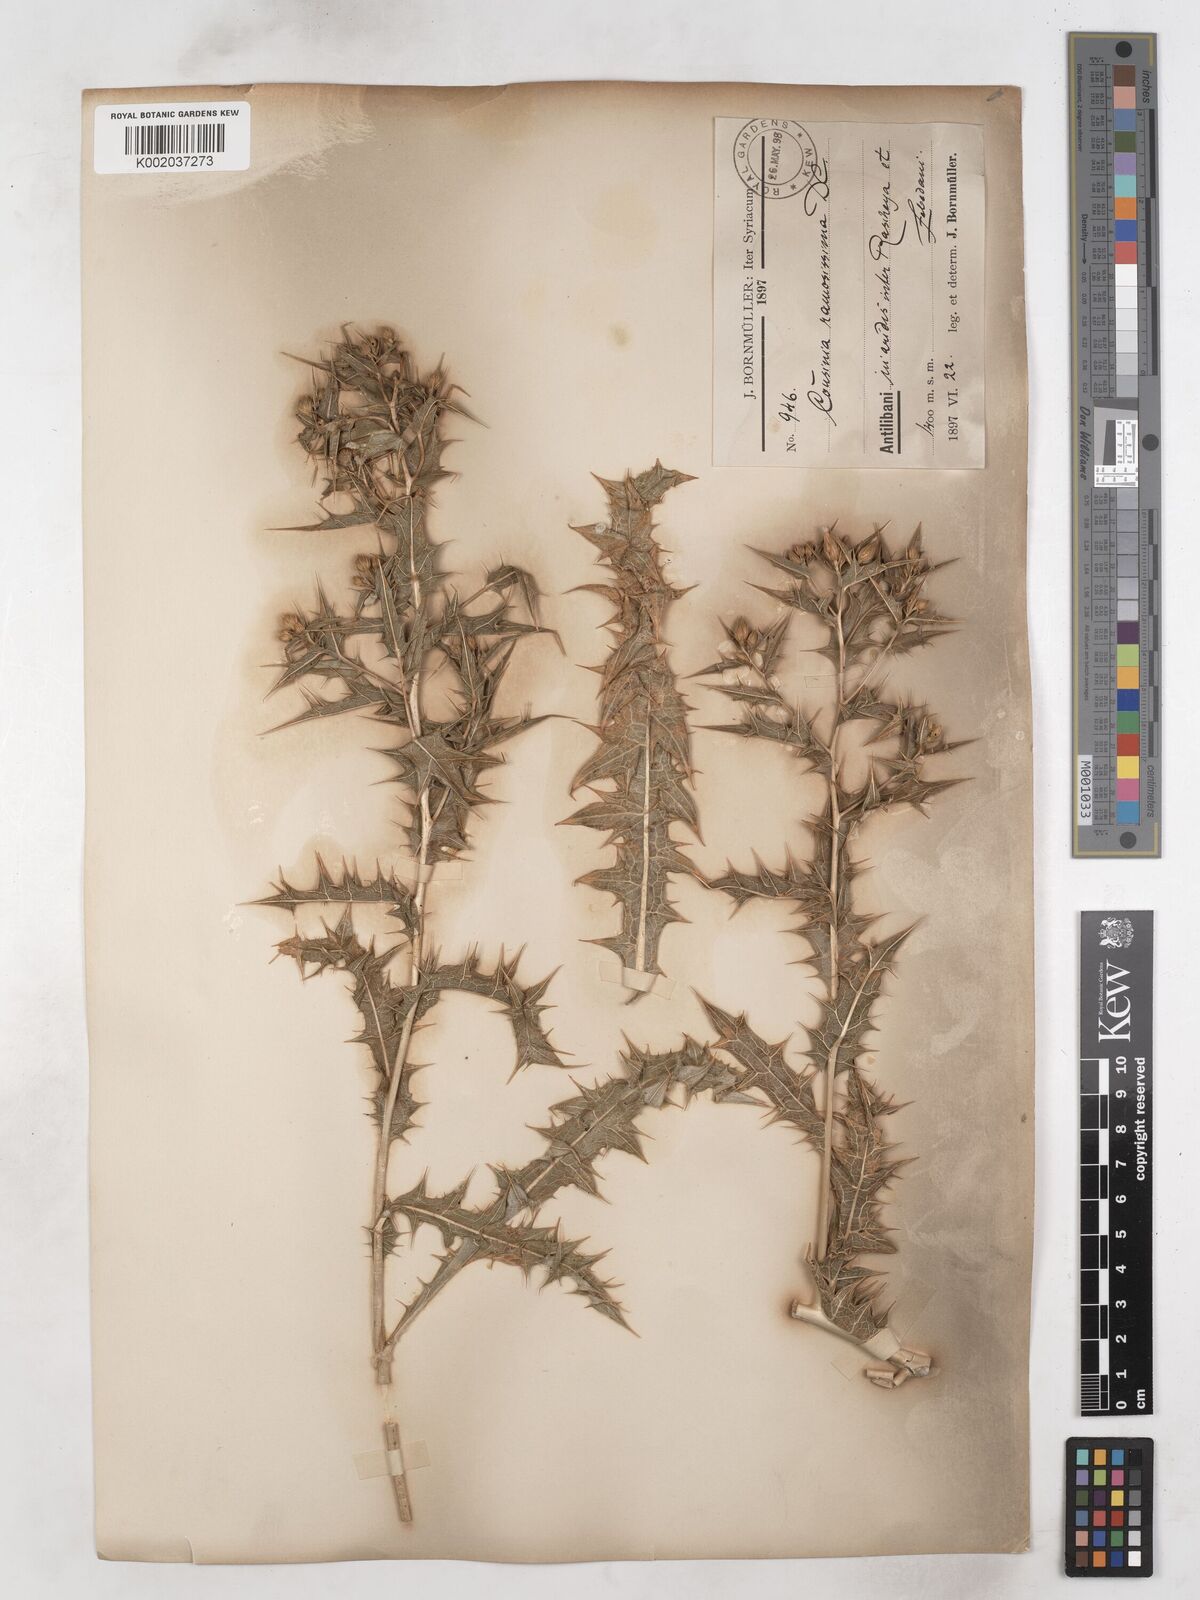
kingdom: Plantae
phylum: Tracheophyta
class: Magnoliopsida
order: Asterales
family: Asteraceae
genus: Cousinia
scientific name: Cousinia ramosissima
